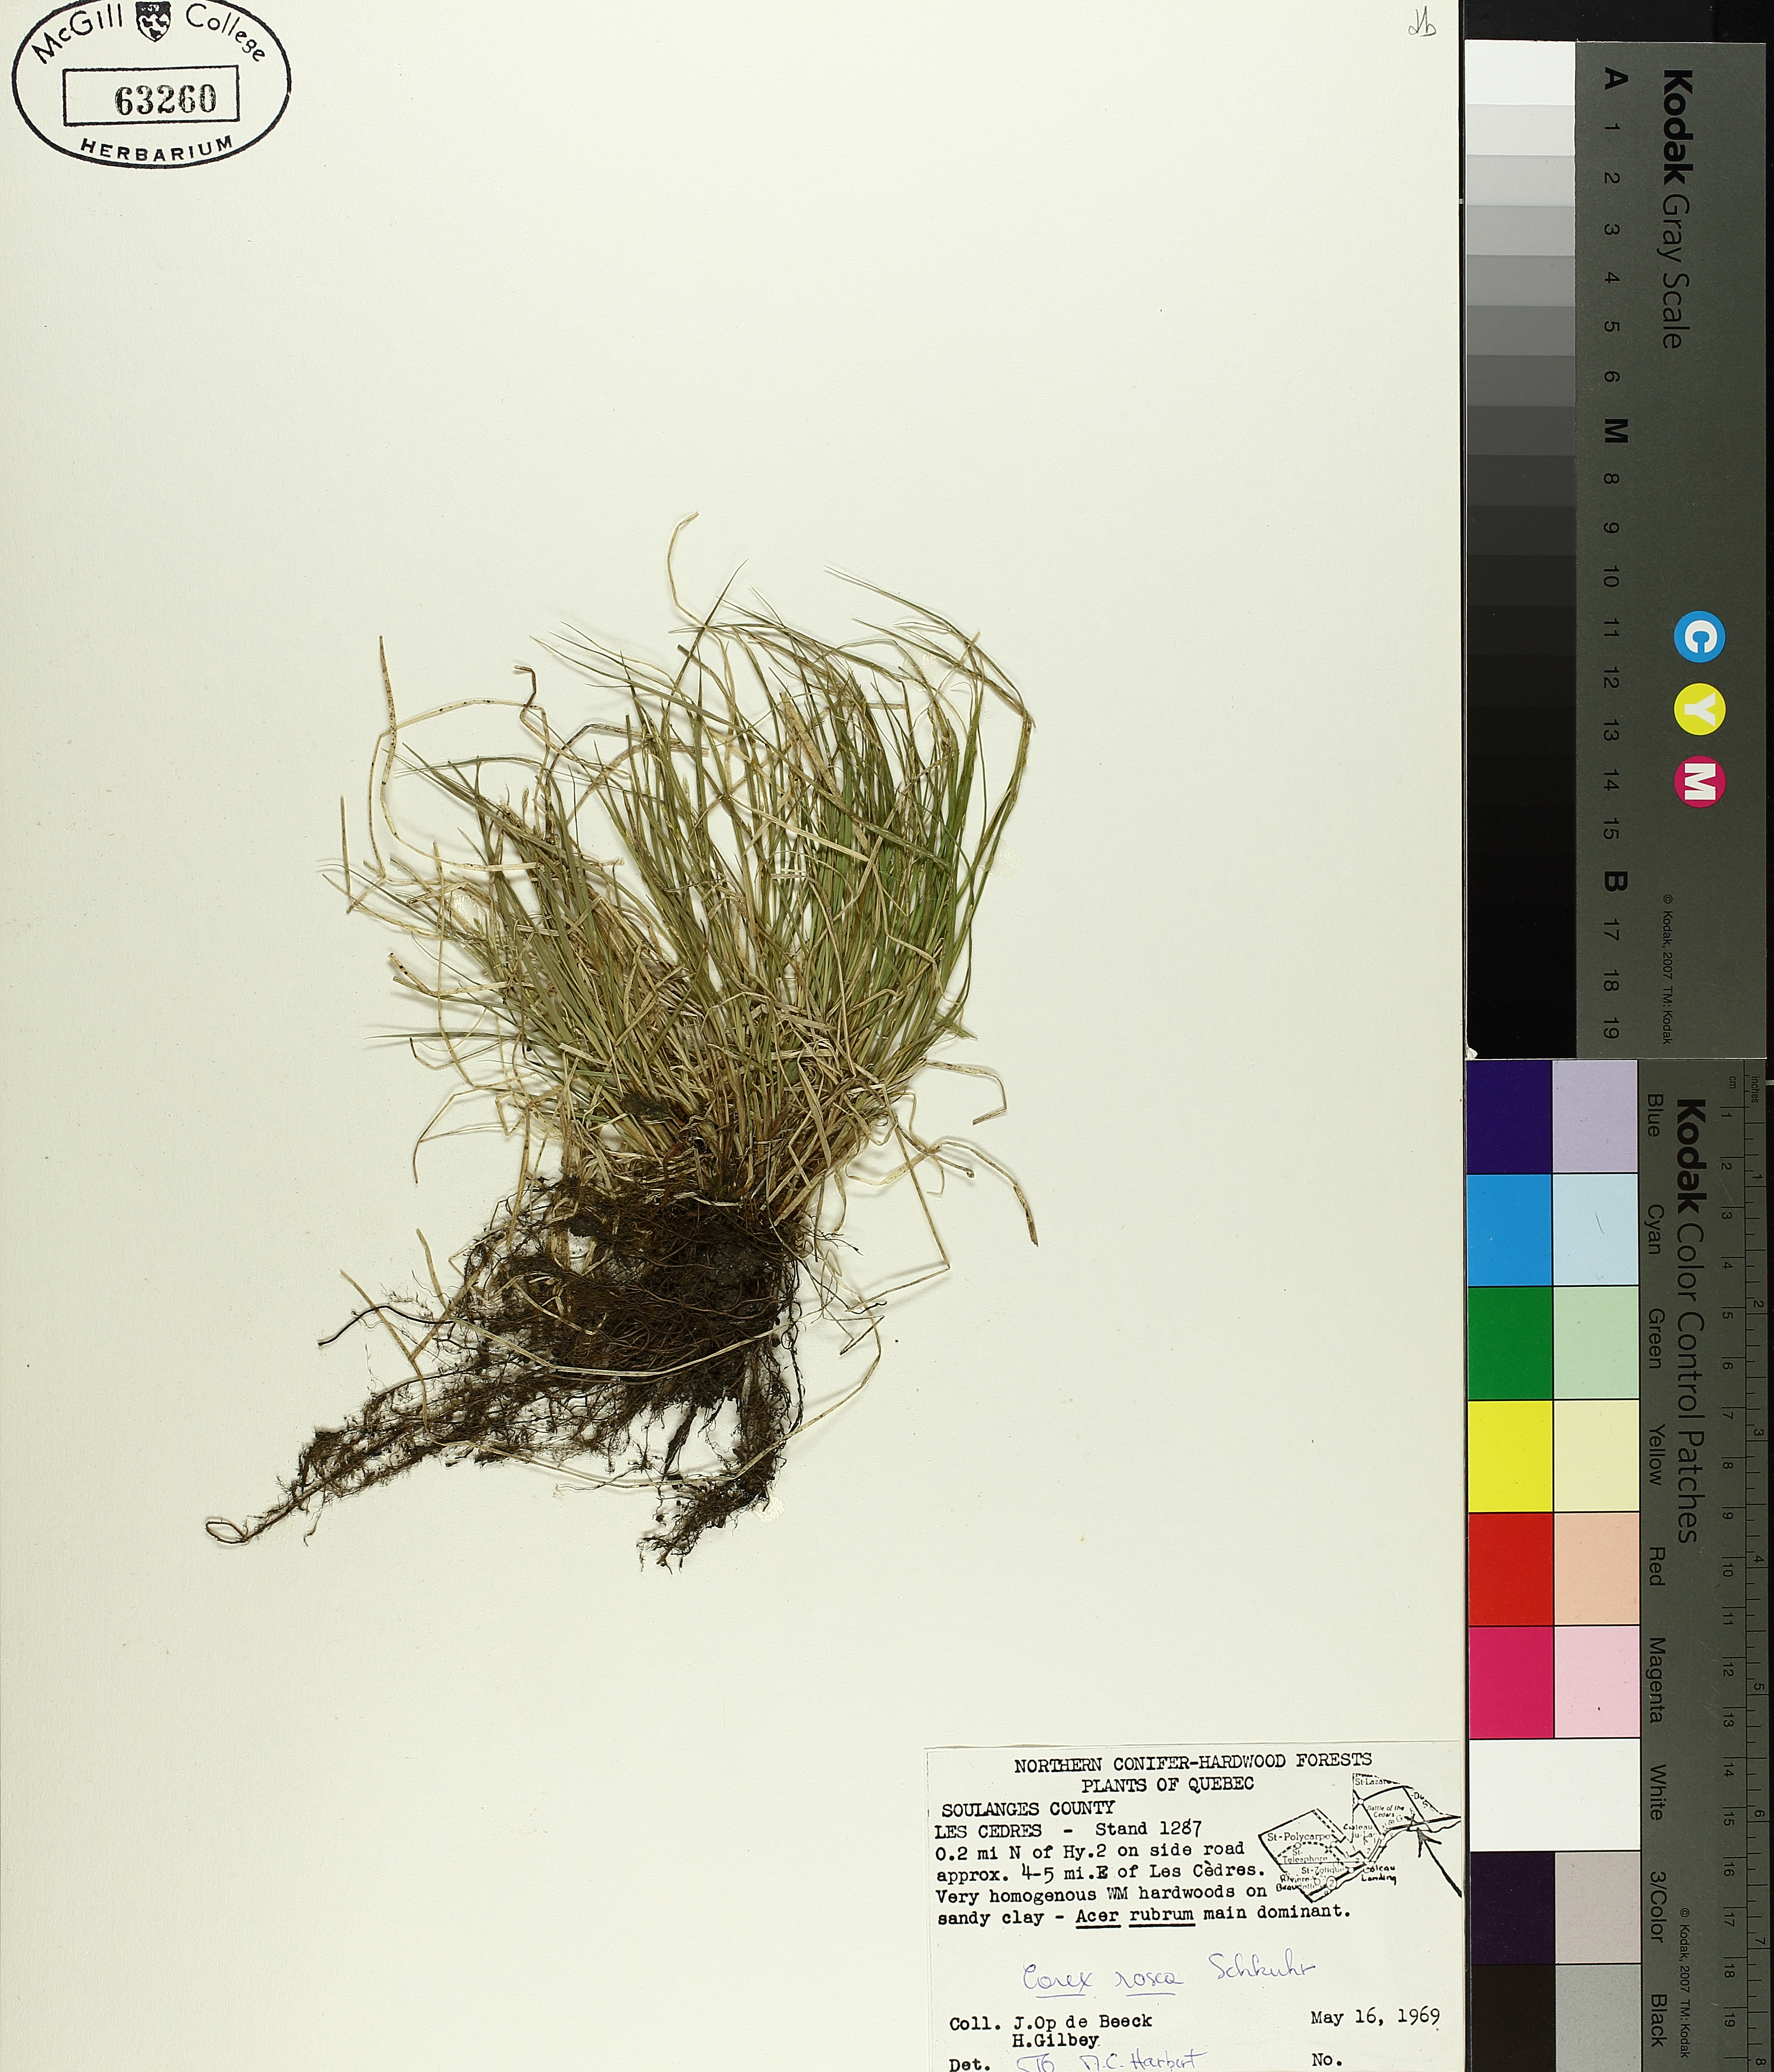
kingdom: Plantae
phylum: Tracheophyta
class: Liliopsida
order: Poales
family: Cyperaceae
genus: Carex
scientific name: Carex rosea
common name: Curly-styled wood sedge
